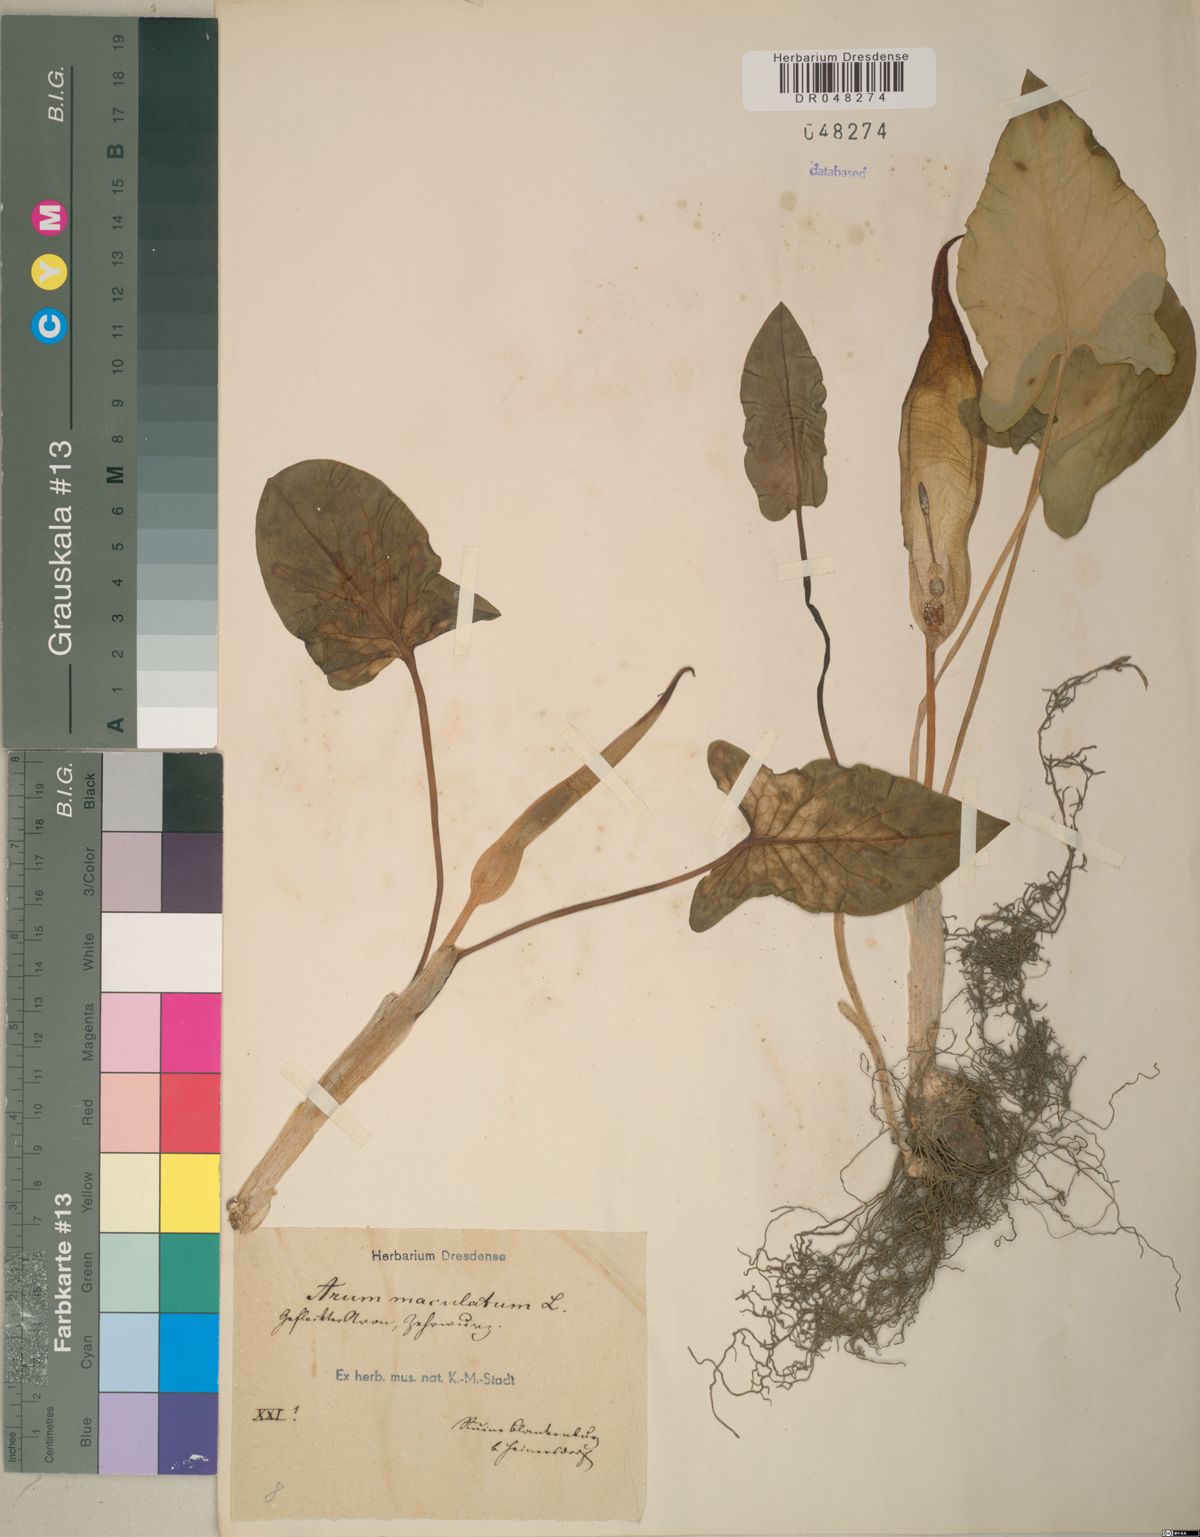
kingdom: Plantae
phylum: Tracheophyta
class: Liliopsida
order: Alismatales
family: Araceae
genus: Arum
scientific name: Arum maculatum
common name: Lords-and-ladies
